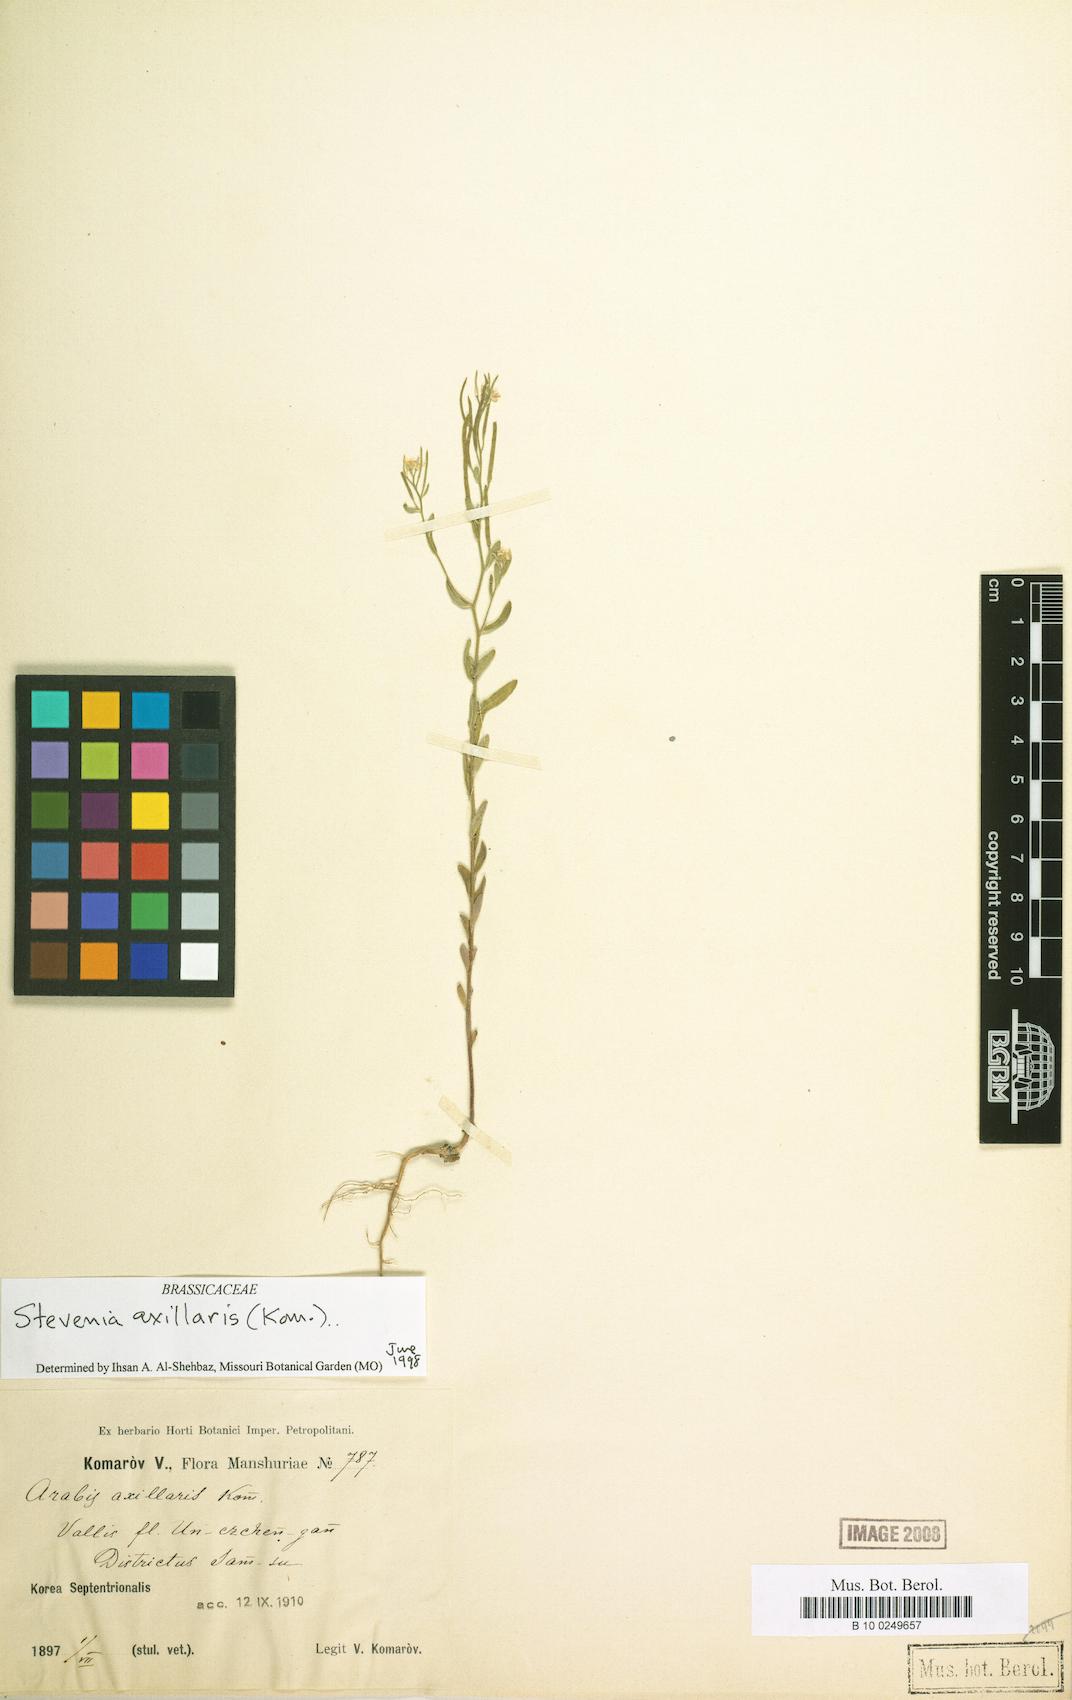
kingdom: Plantae
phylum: Tracheophyta
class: Magnoliopsida
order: Brassicales
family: Brassicaceae
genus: Arabis
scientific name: Arabis axillaris
